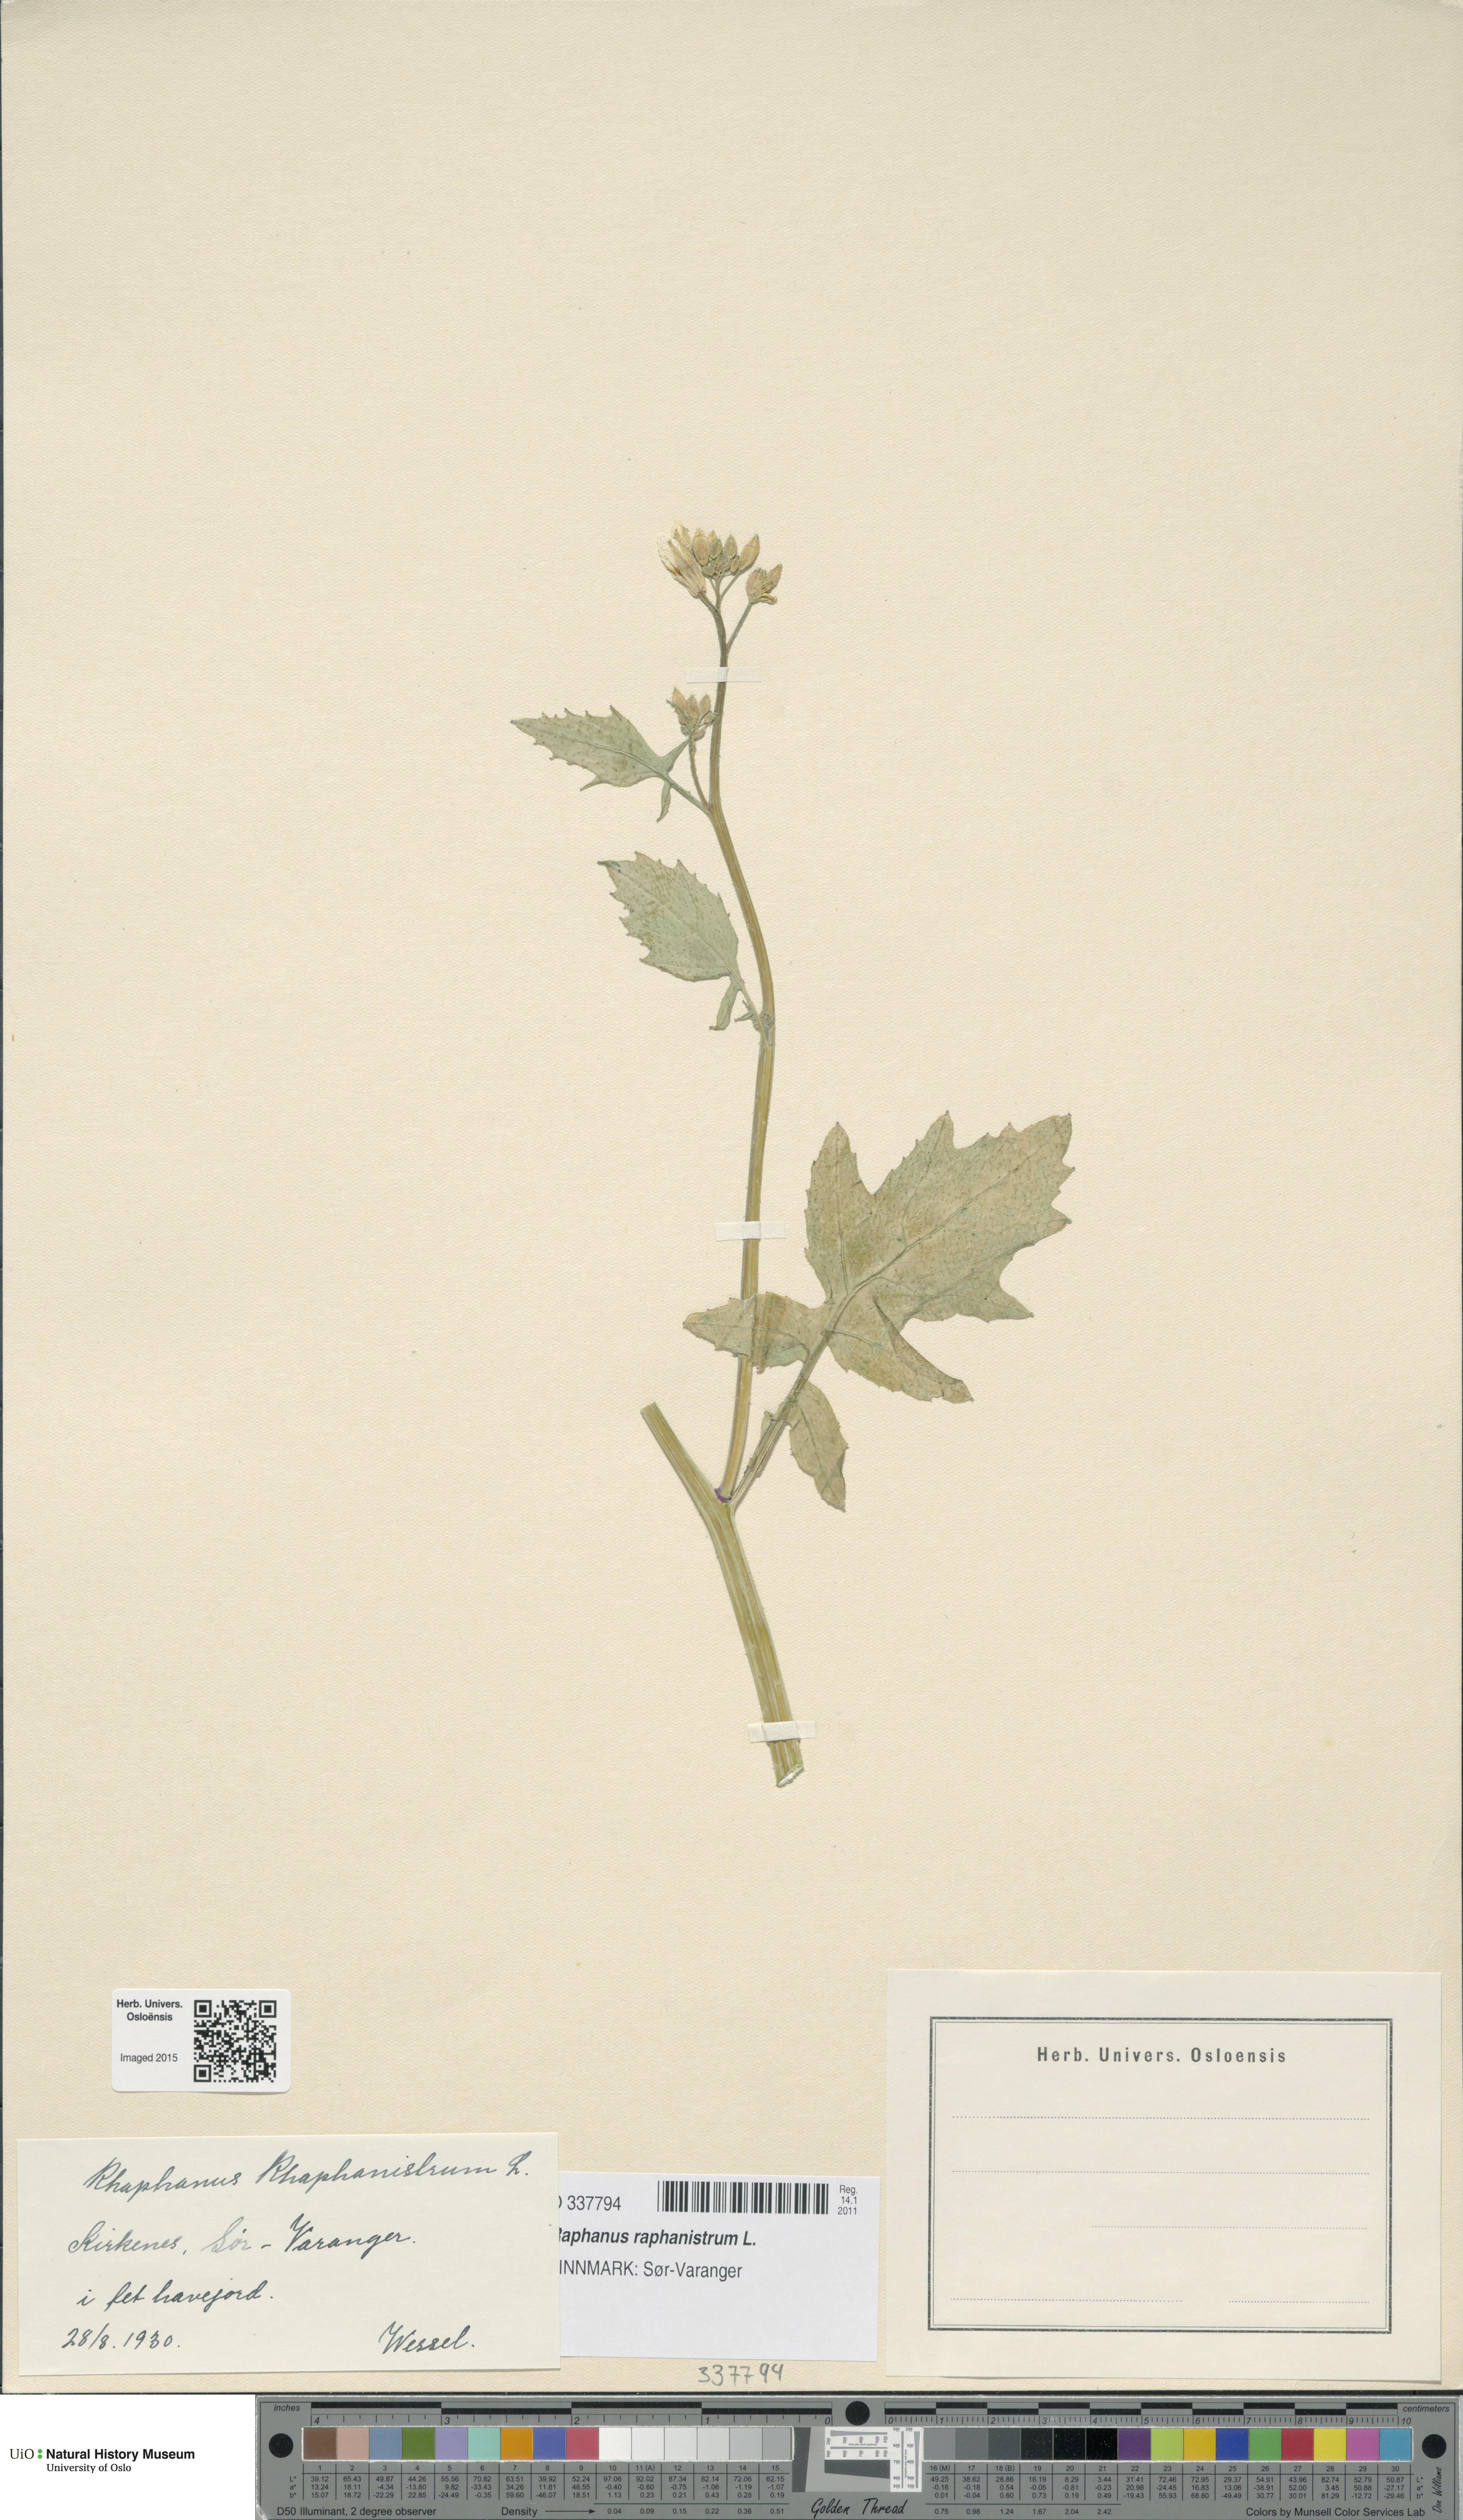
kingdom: Plantae
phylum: Tracheophyta
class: Magnoliopsida
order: Brassicales
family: Brassicaceae
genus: Raphanus
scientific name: Raphanus raphanistrum
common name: Wild radish
